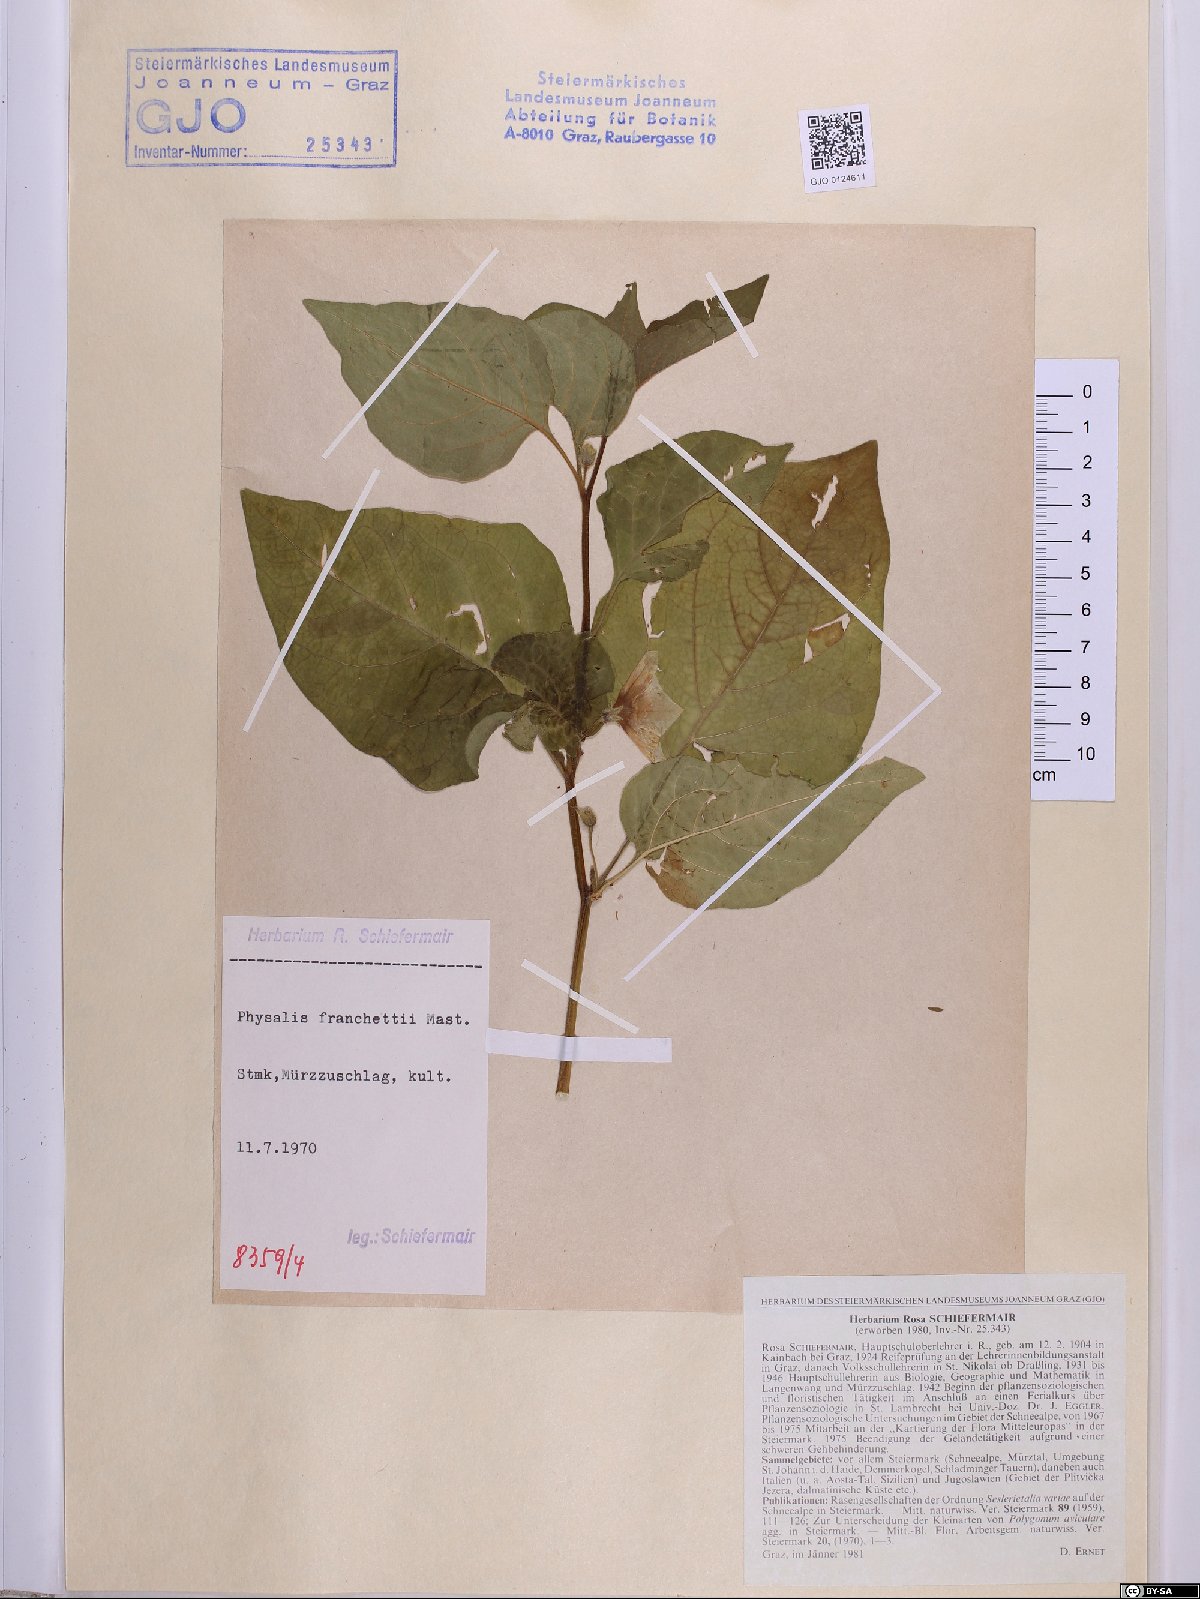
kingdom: Plantae
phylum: Tracheophyta
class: Magnoliopsida
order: Solanales
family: Solanaceae
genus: Alkekengi
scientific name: Alkekengi officinarum
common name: Japanese-lantern
